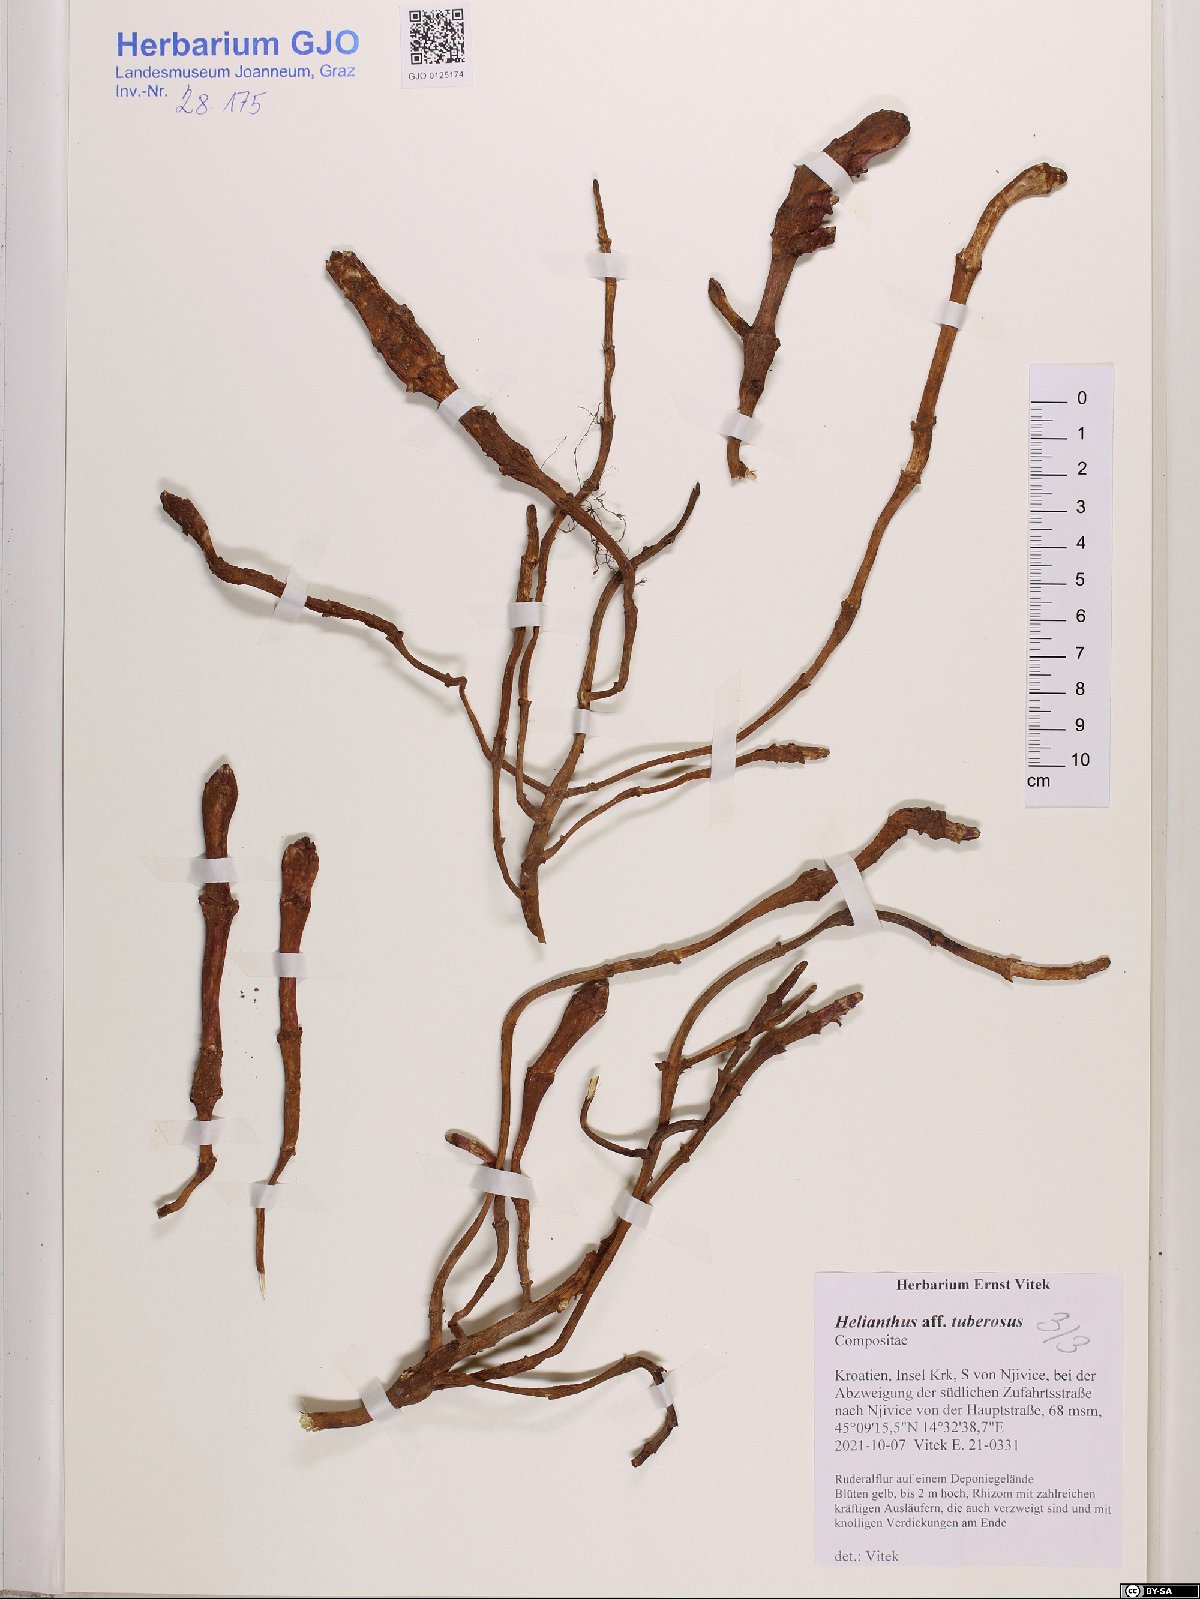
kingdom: Plantae
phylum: Tracheophyta
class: Magnoliopsida
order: Asterales
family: Asteraceae
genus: Helianthus
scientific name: Helianthus tuberosus
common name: Jerusalem artichoke
